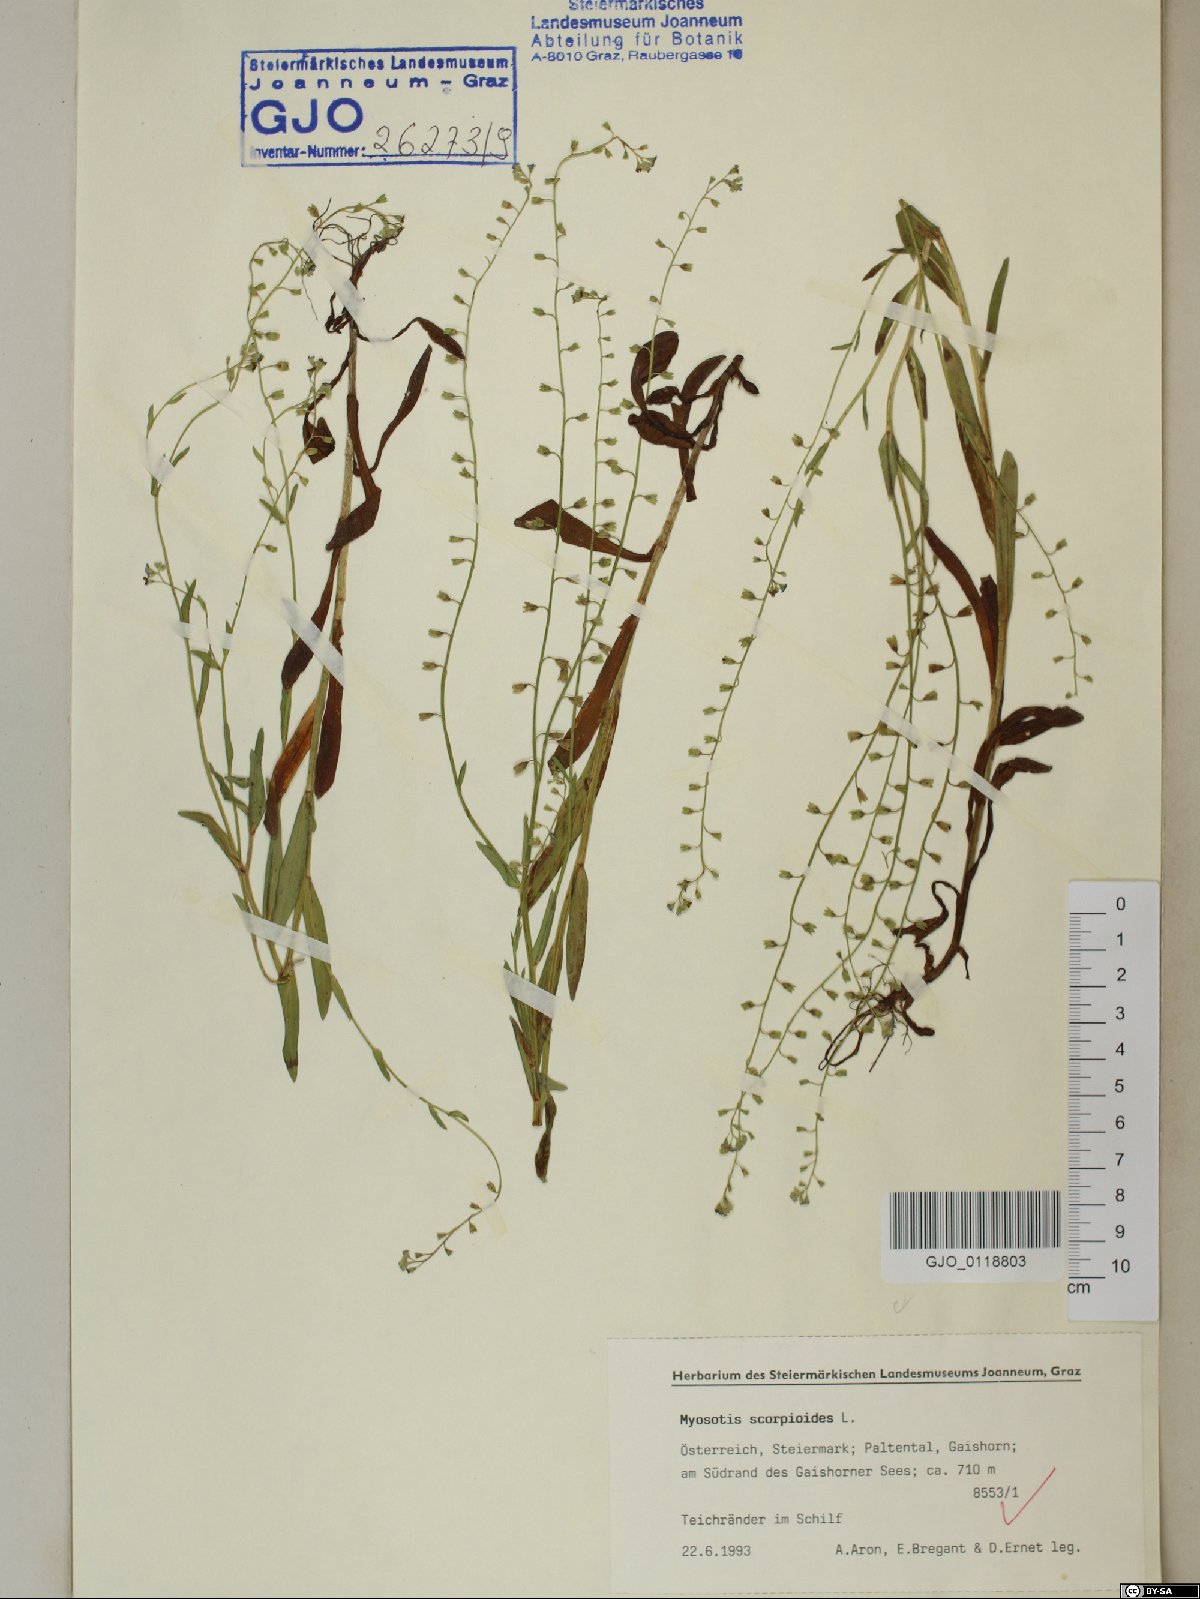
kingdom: Plantae
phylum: Tracheophyta
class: Magnoliopsida
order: Boraginales
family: Boraginaceae
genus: Myosotis
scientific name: Myosotis scorpioides
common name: Water forget-me-not
